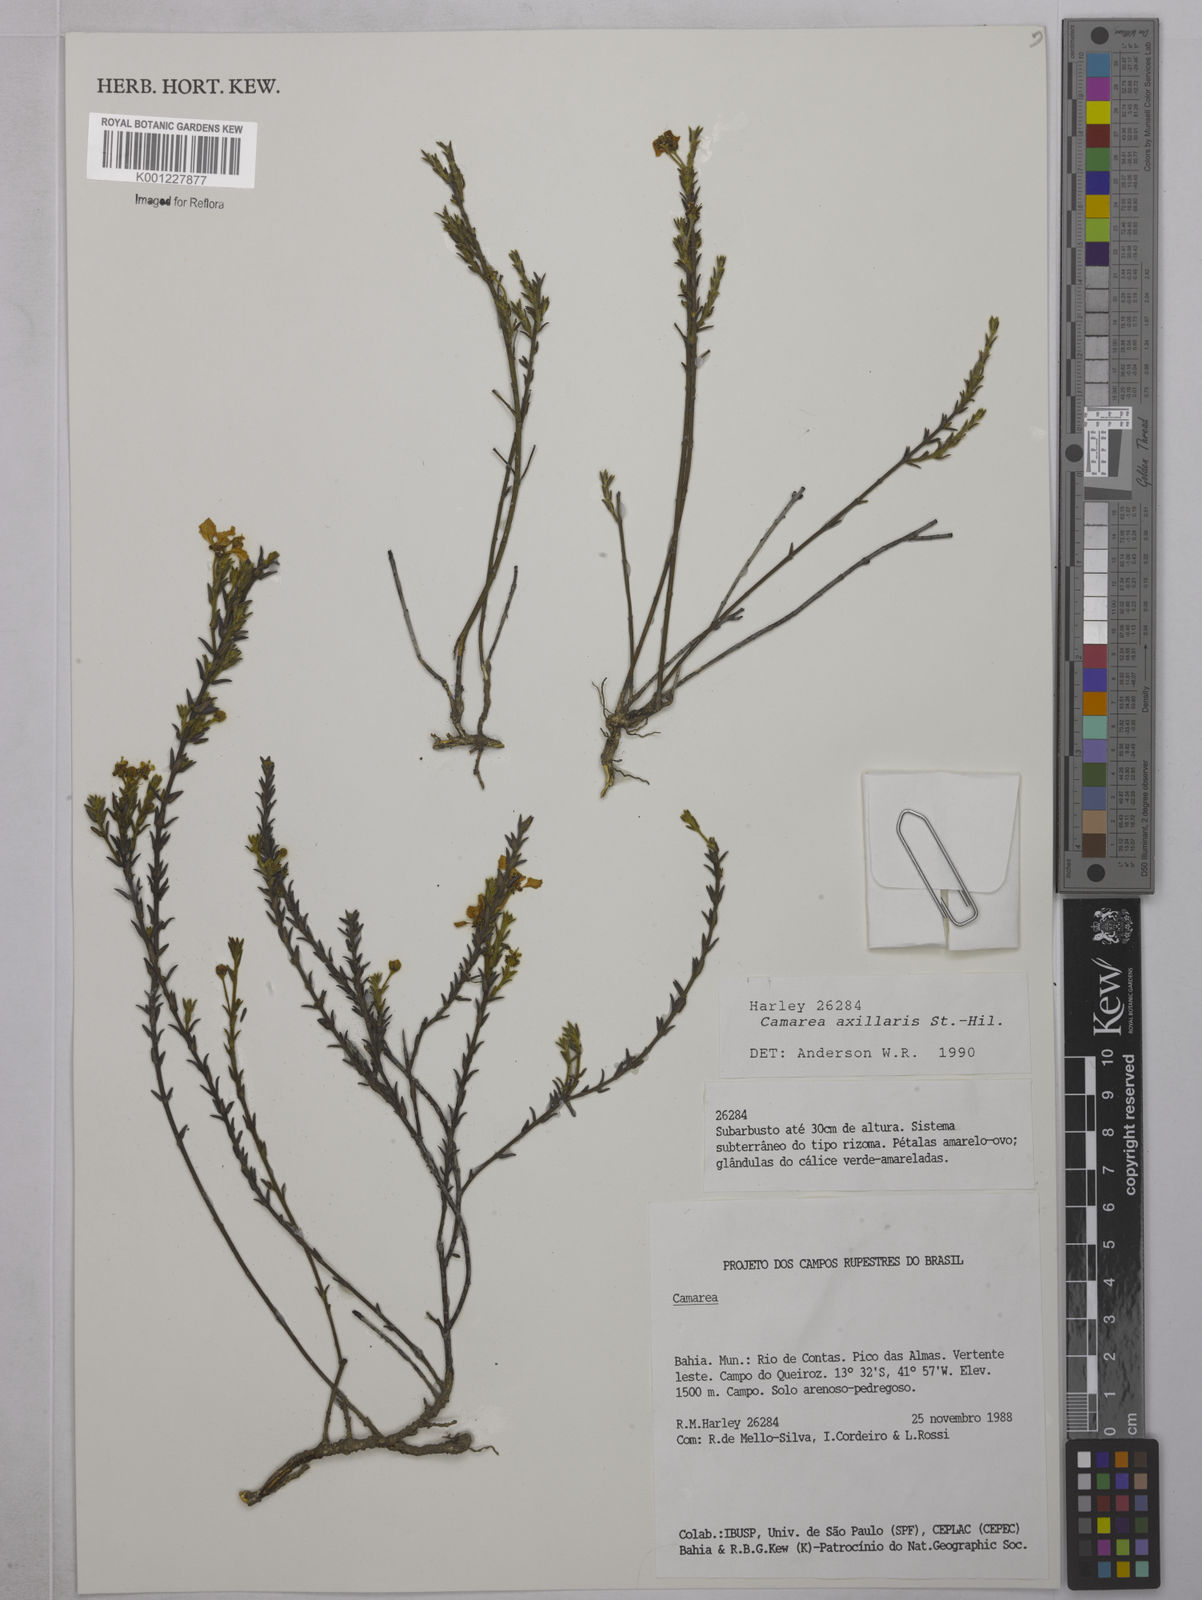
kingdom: Plantae
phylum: Tracheophyta
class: Magnoliopsida
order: Malpighiales
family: Malpighiaceae
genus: Camarea
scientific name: Camarea axillaris
